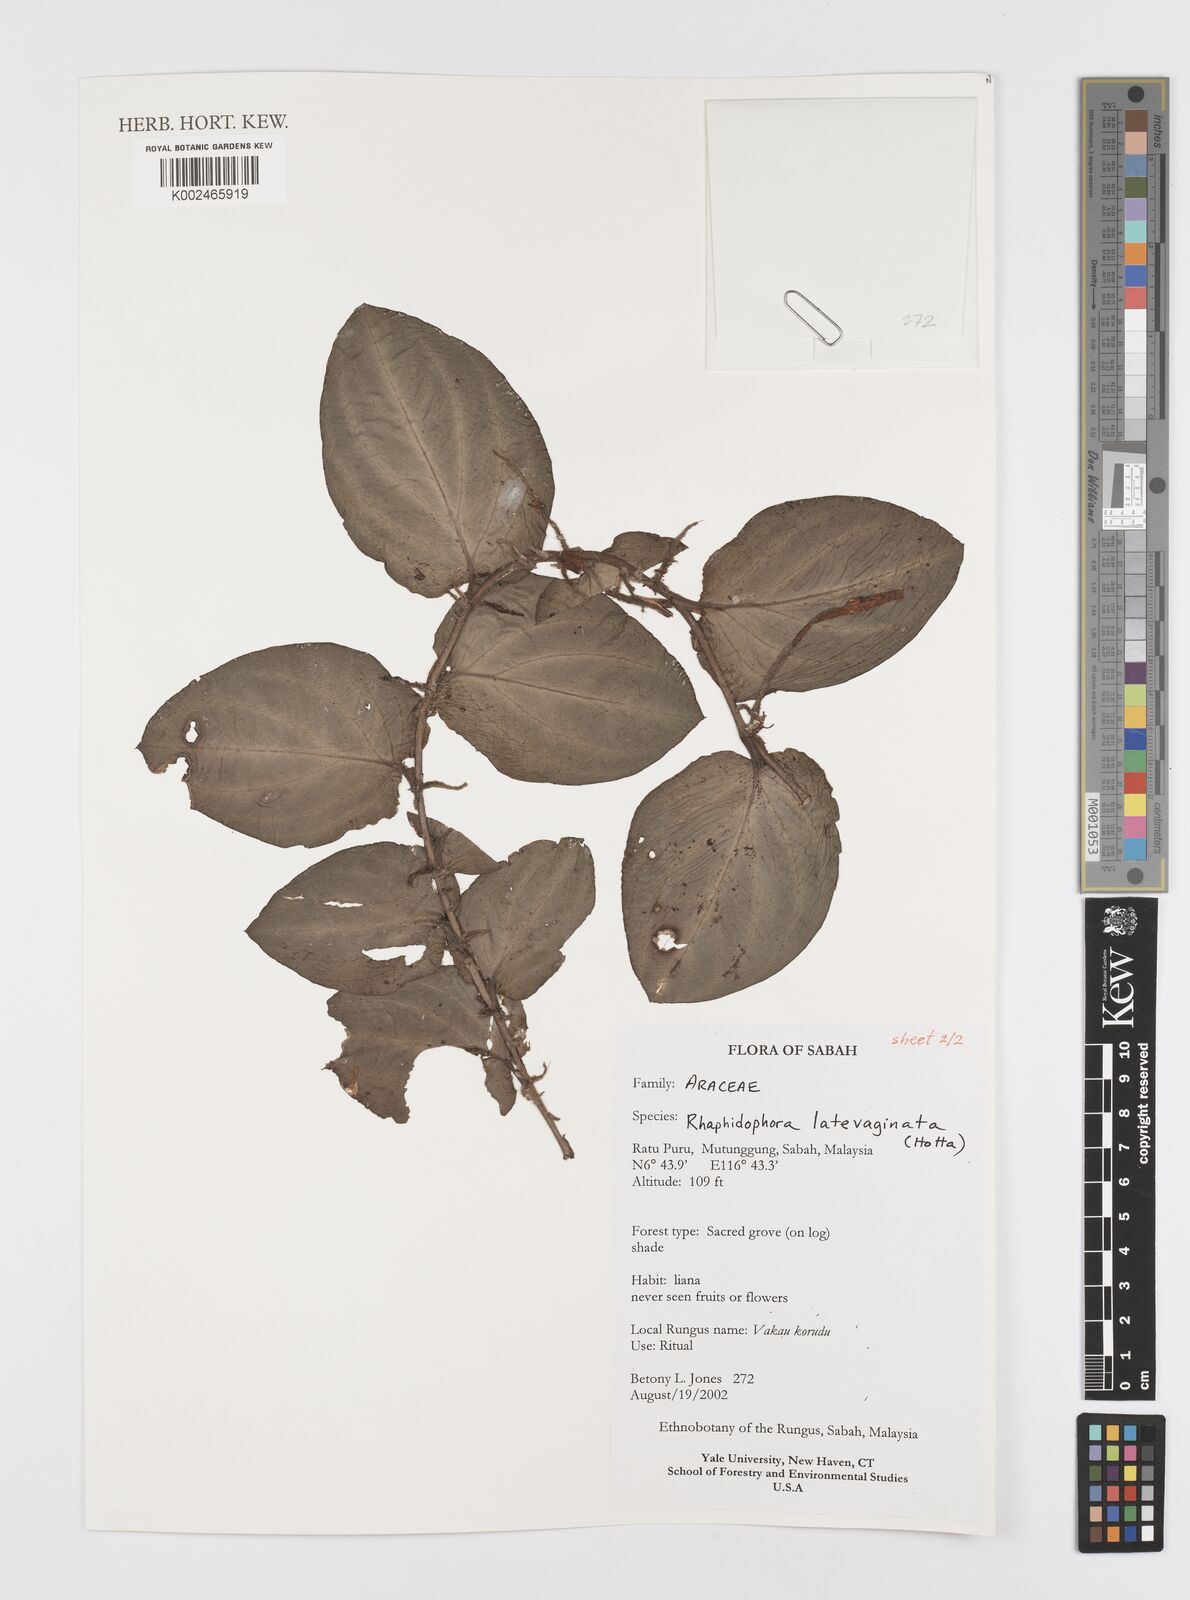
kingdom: Plantae
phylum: Tracheophyta
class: Liliopsida
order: Alismatales
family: Araceae
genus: Rhaphidophora
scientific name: Rhaphidophora latevaginata
